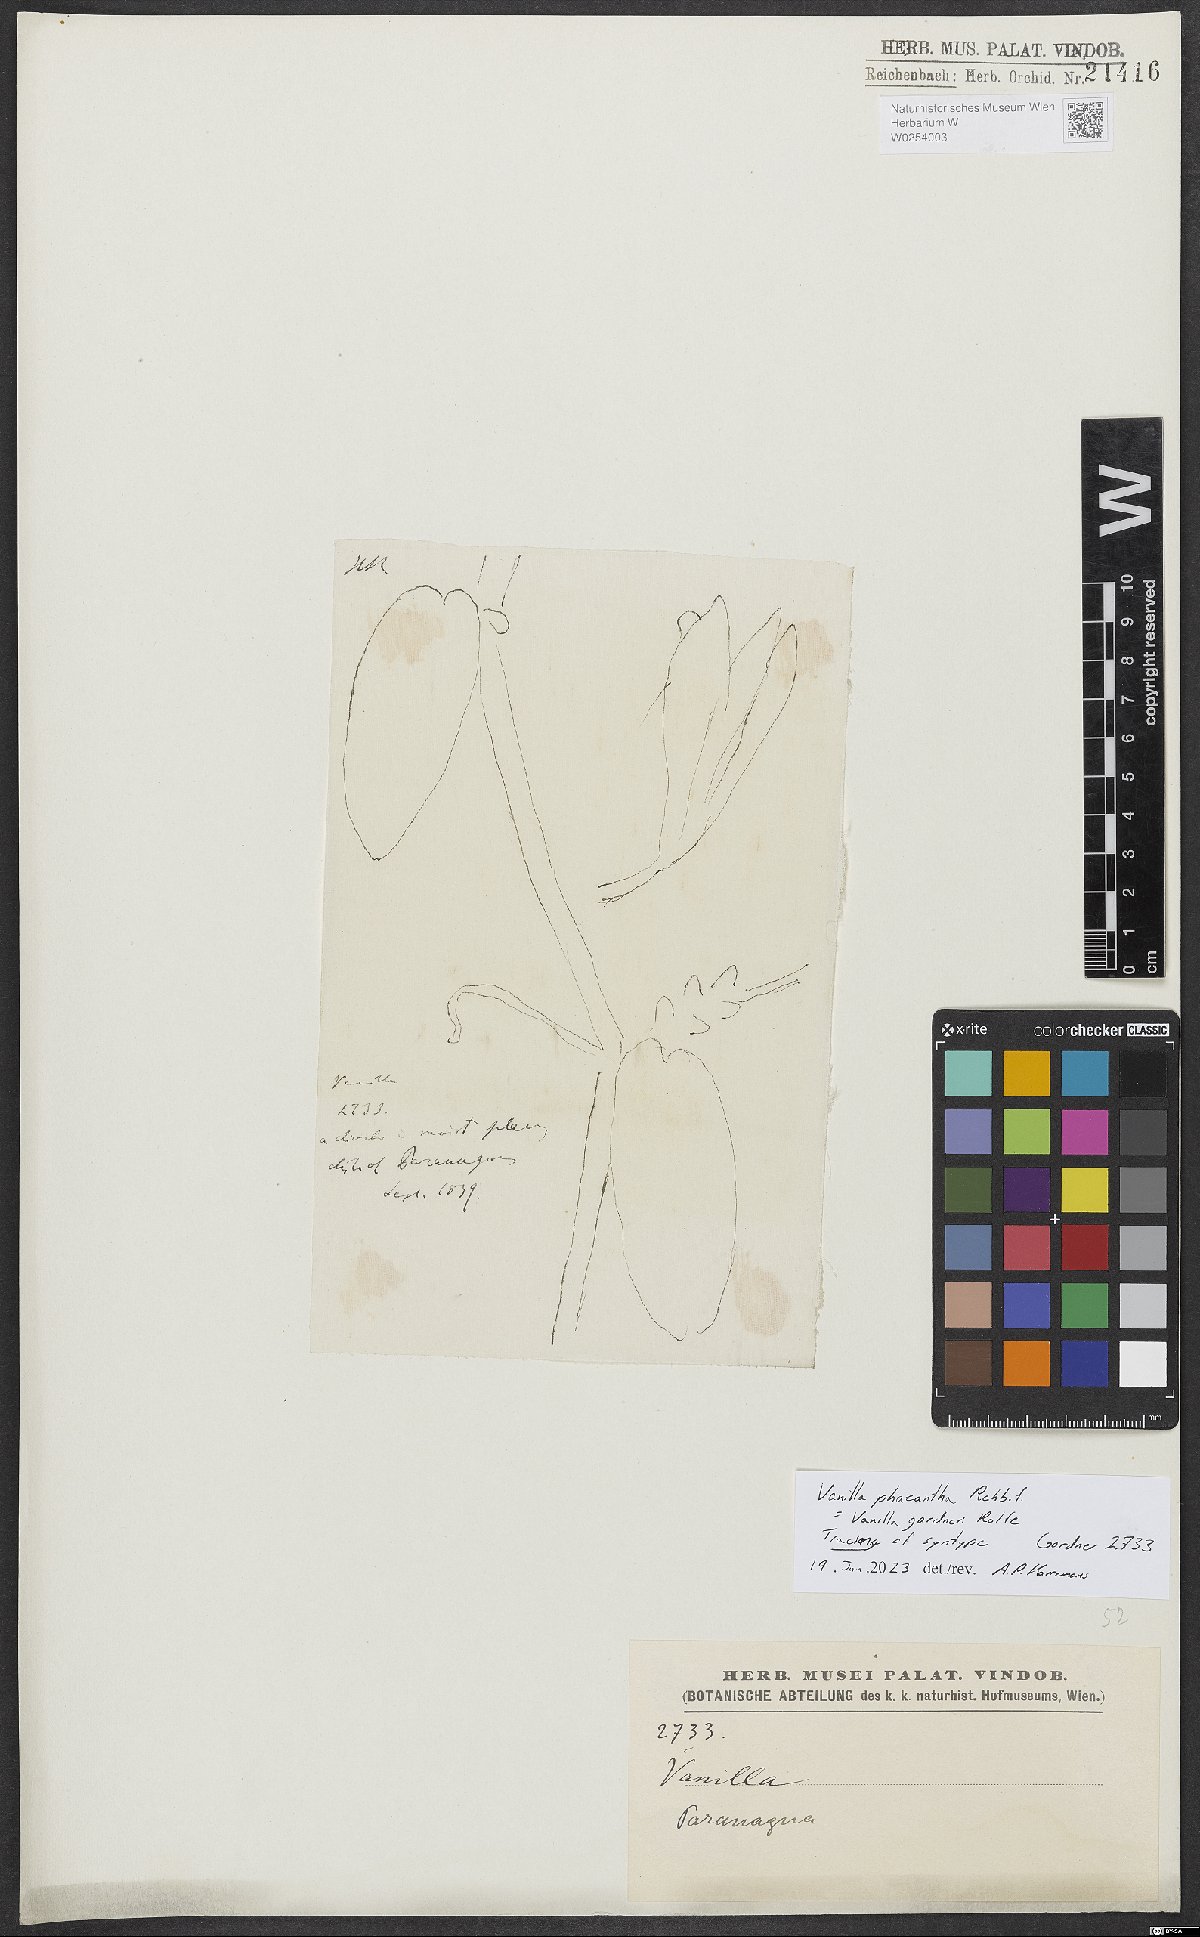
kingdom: Plantae
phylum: Tracheophyta
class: Liliopsida
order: Asparagales
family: Orchidaceae
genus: Vanilla
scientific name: Vanilla phaeantha
